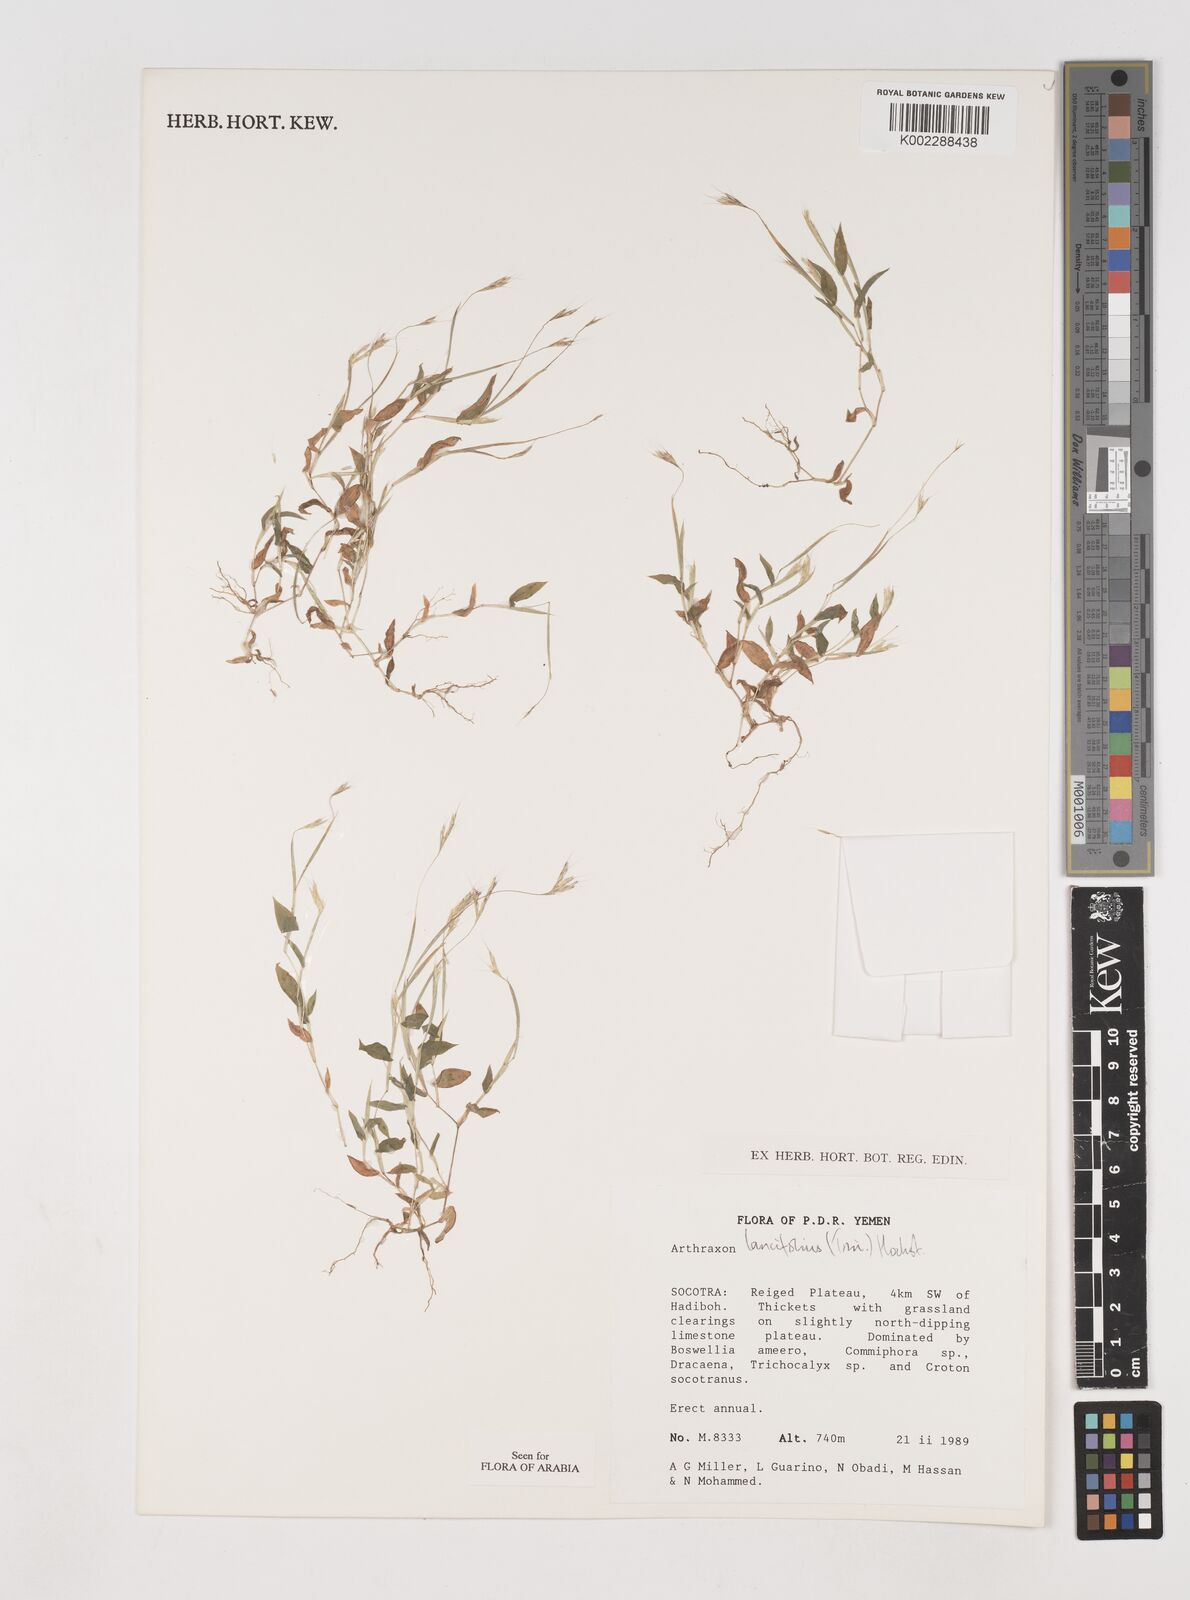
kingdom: Plantae
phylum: Tracheophyta
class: Liliopsida
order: Poales
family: Poaceae
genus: Arthraxon
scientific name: Arthraxon lancifolius
